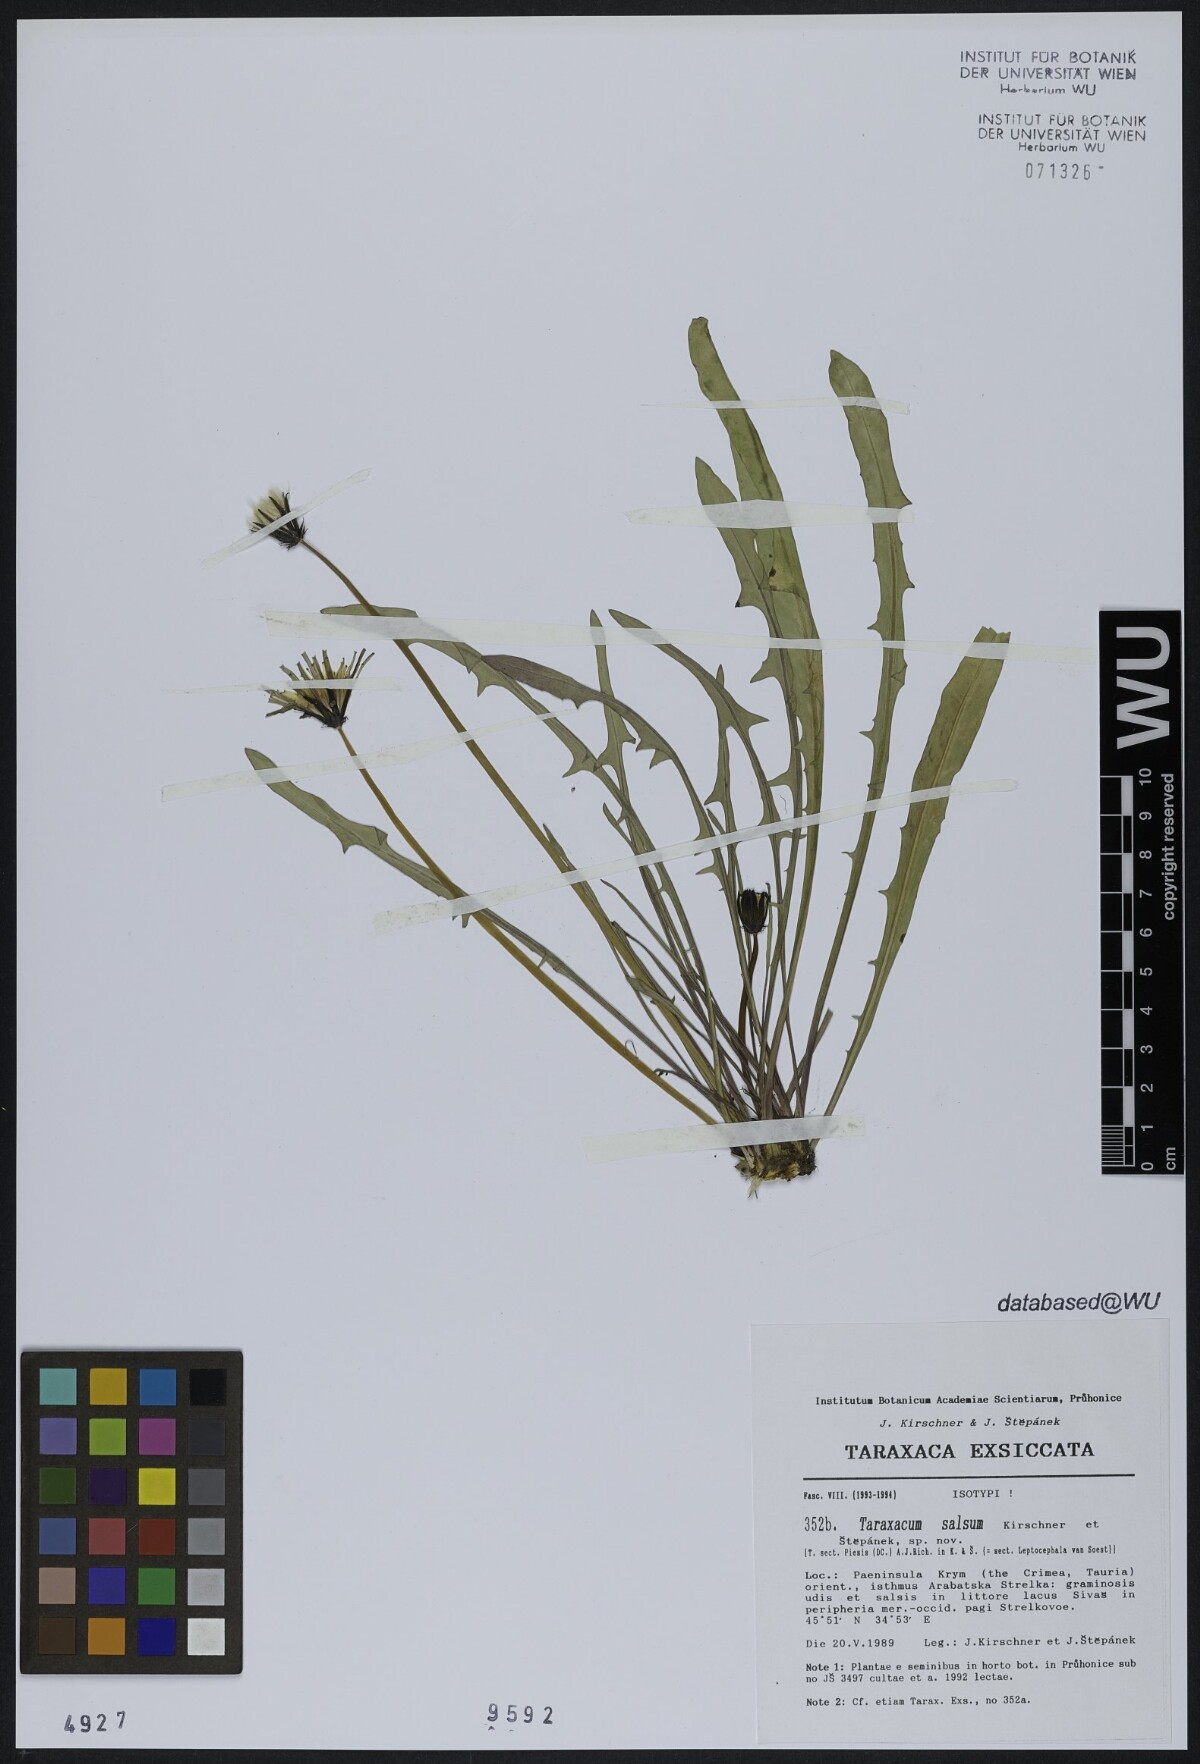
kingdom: Plantae
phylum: Tracheophyta
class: Magnoliopsida
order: Asterales
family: Asteraceae
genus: Taraxacum
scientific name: Taraxacum salsum
